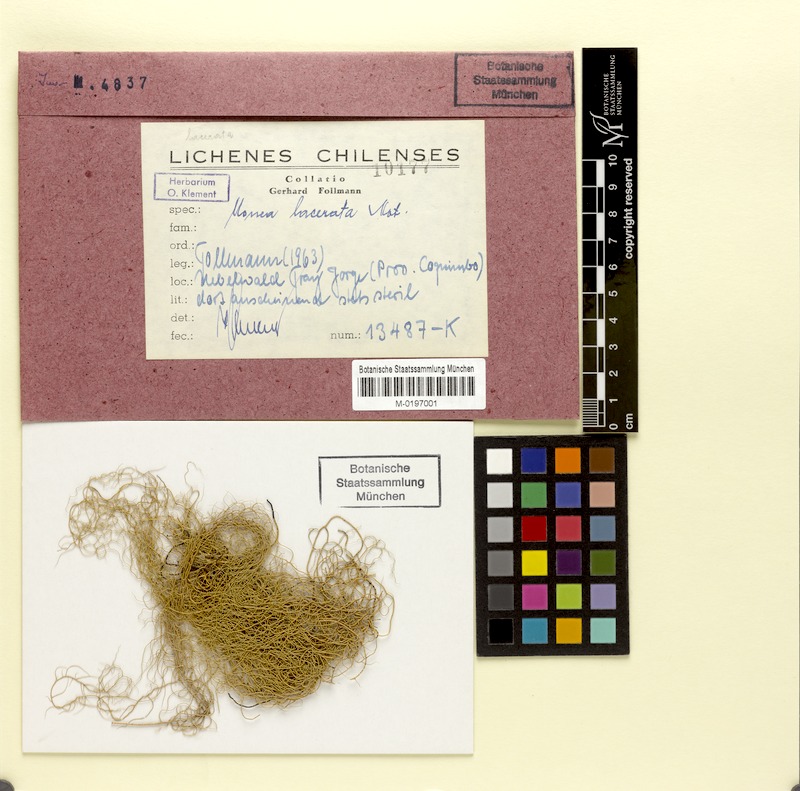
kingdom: Fungi
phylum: Ascomycota
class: Lecanoromycetes
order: Lecanorales
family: Parmeliaceae
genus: Usnea
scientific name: Usnea lacerata
